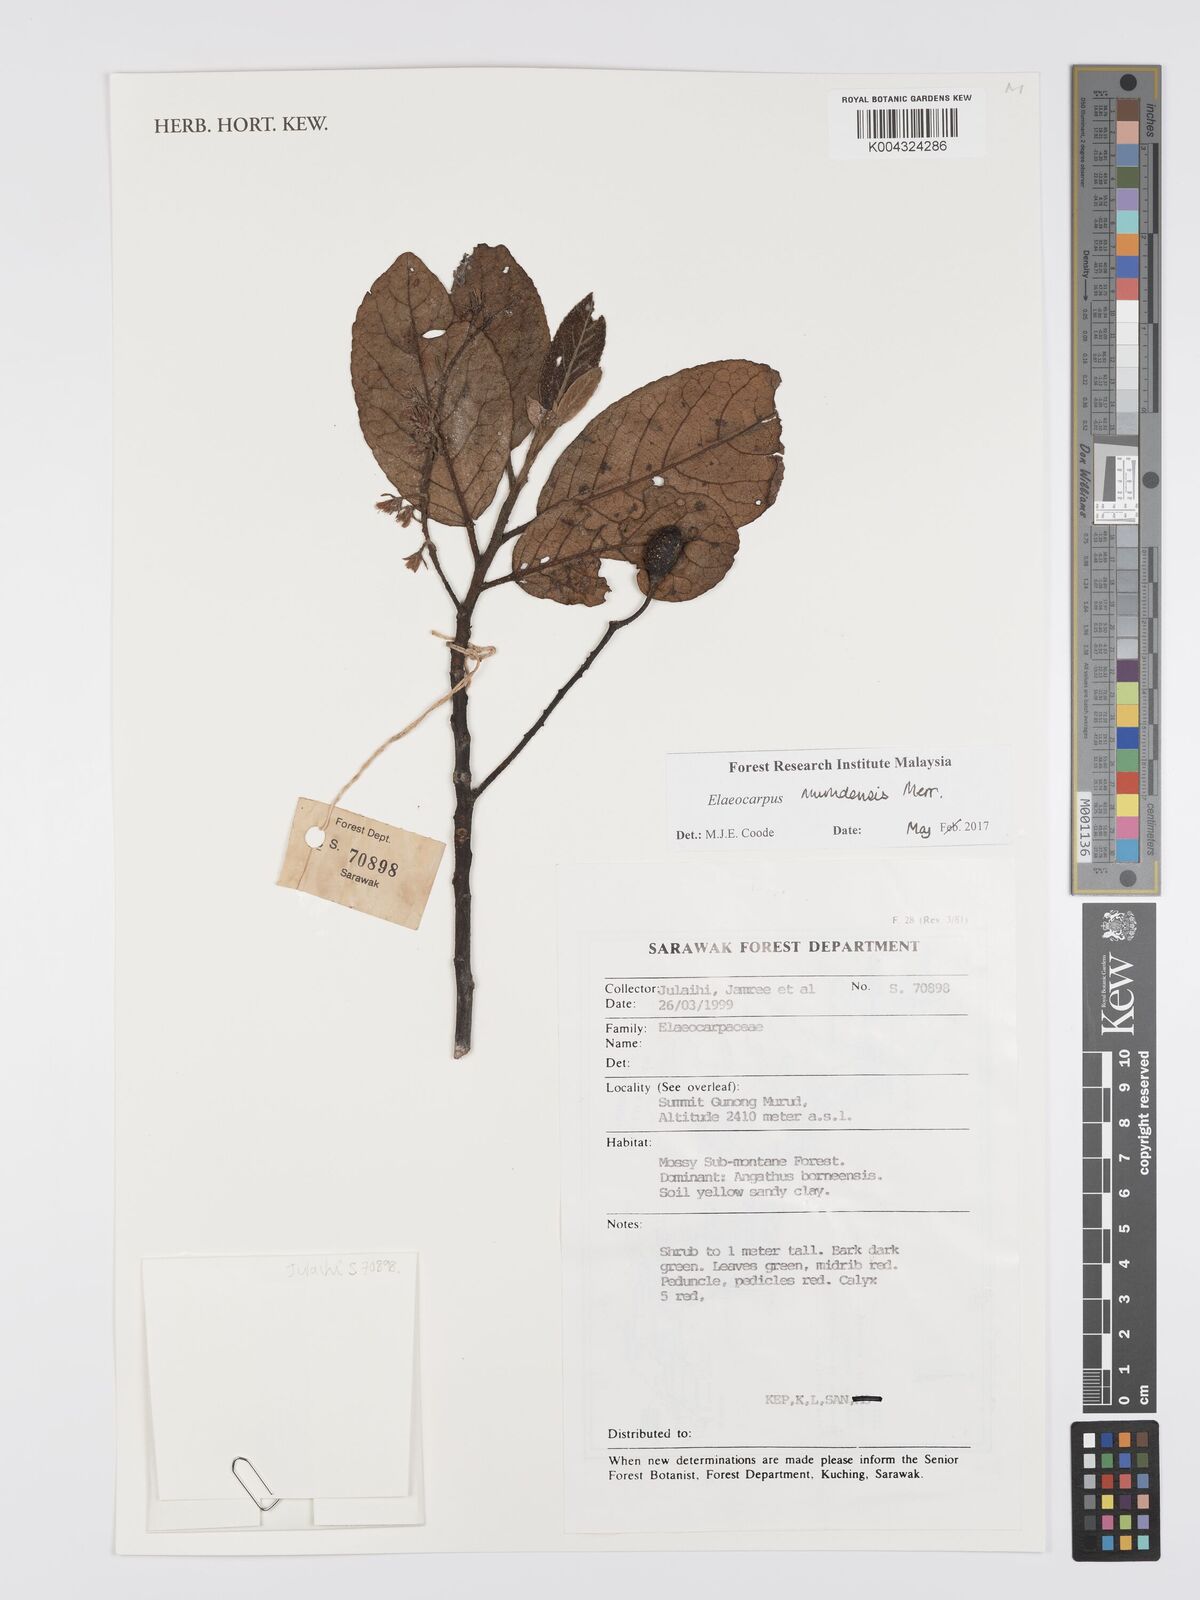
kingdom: Plantae
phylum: Tracheophyta
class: Magnoliopsida
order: Oxalidales
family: Elaeocarpaceae
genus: Elaeocarpus
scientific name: Elaeocarpus murudensis
